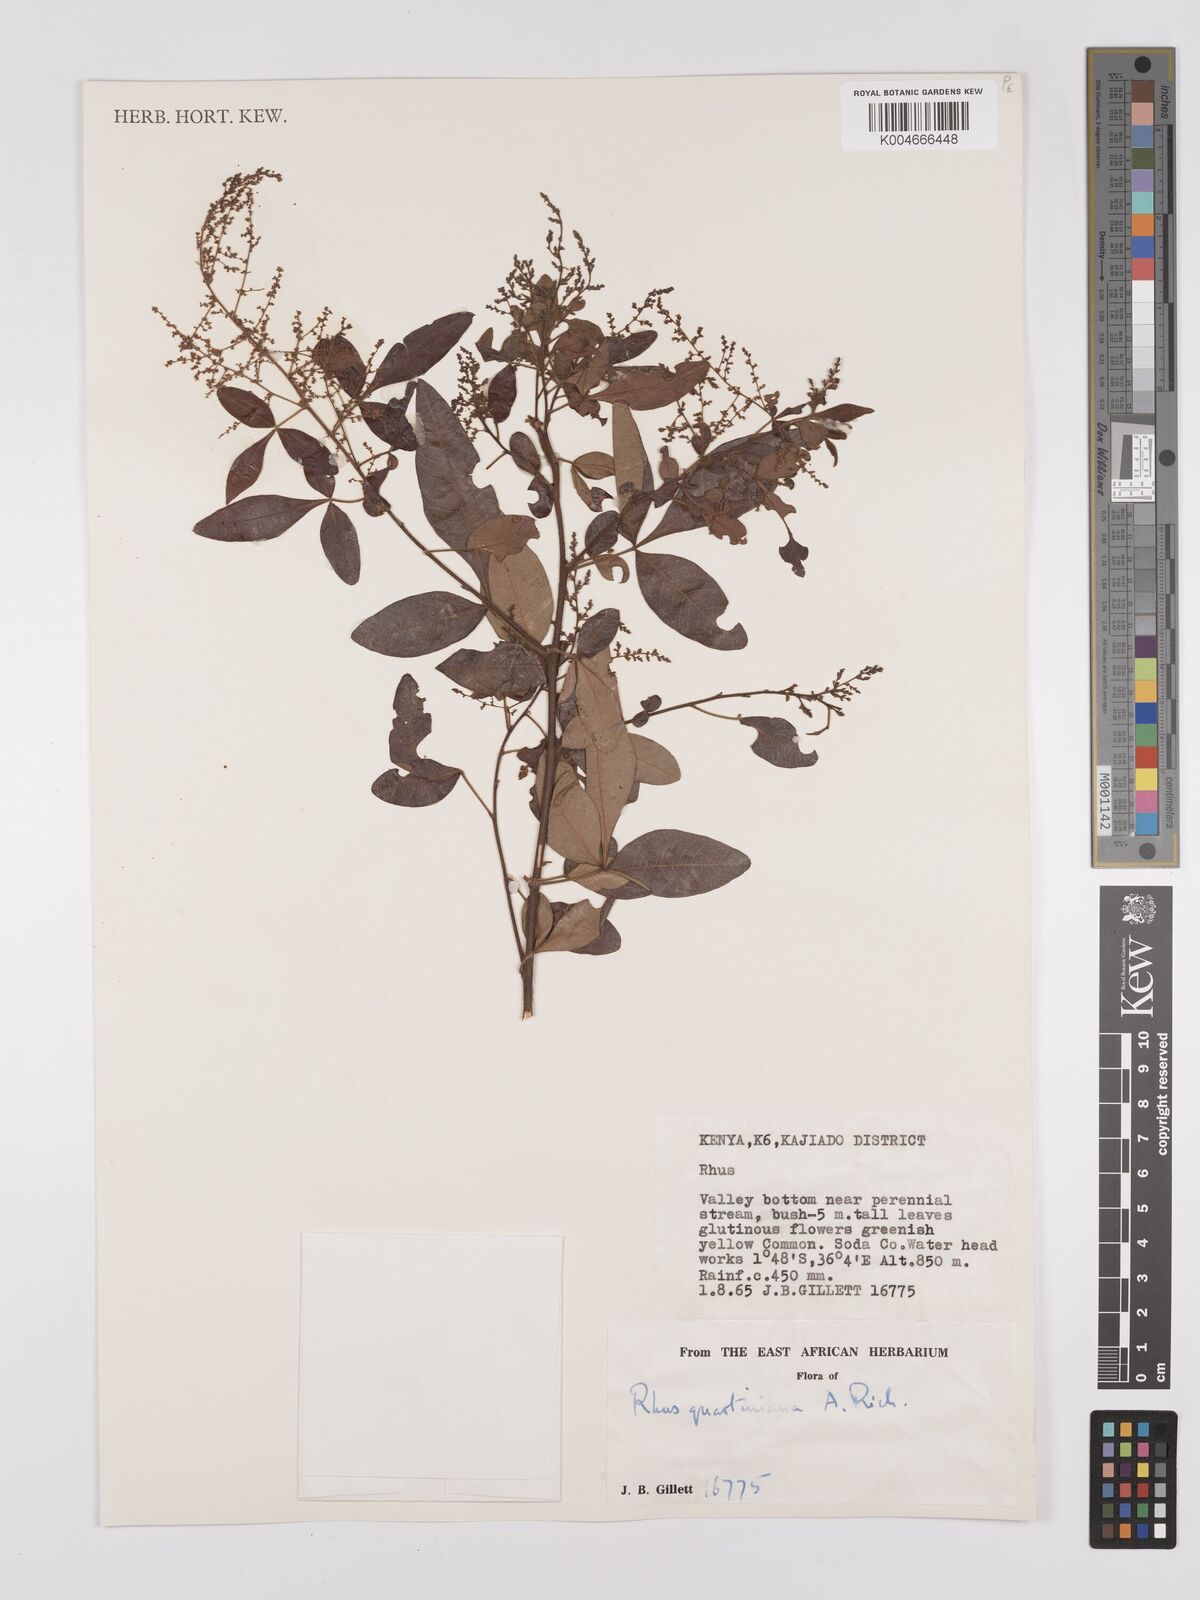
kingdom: Plantae
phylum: Tracheophyta
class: Magnoliopsida
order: Sapindales
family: Anacardiaceae
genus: Searsia
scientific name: Searsia quartiniana
